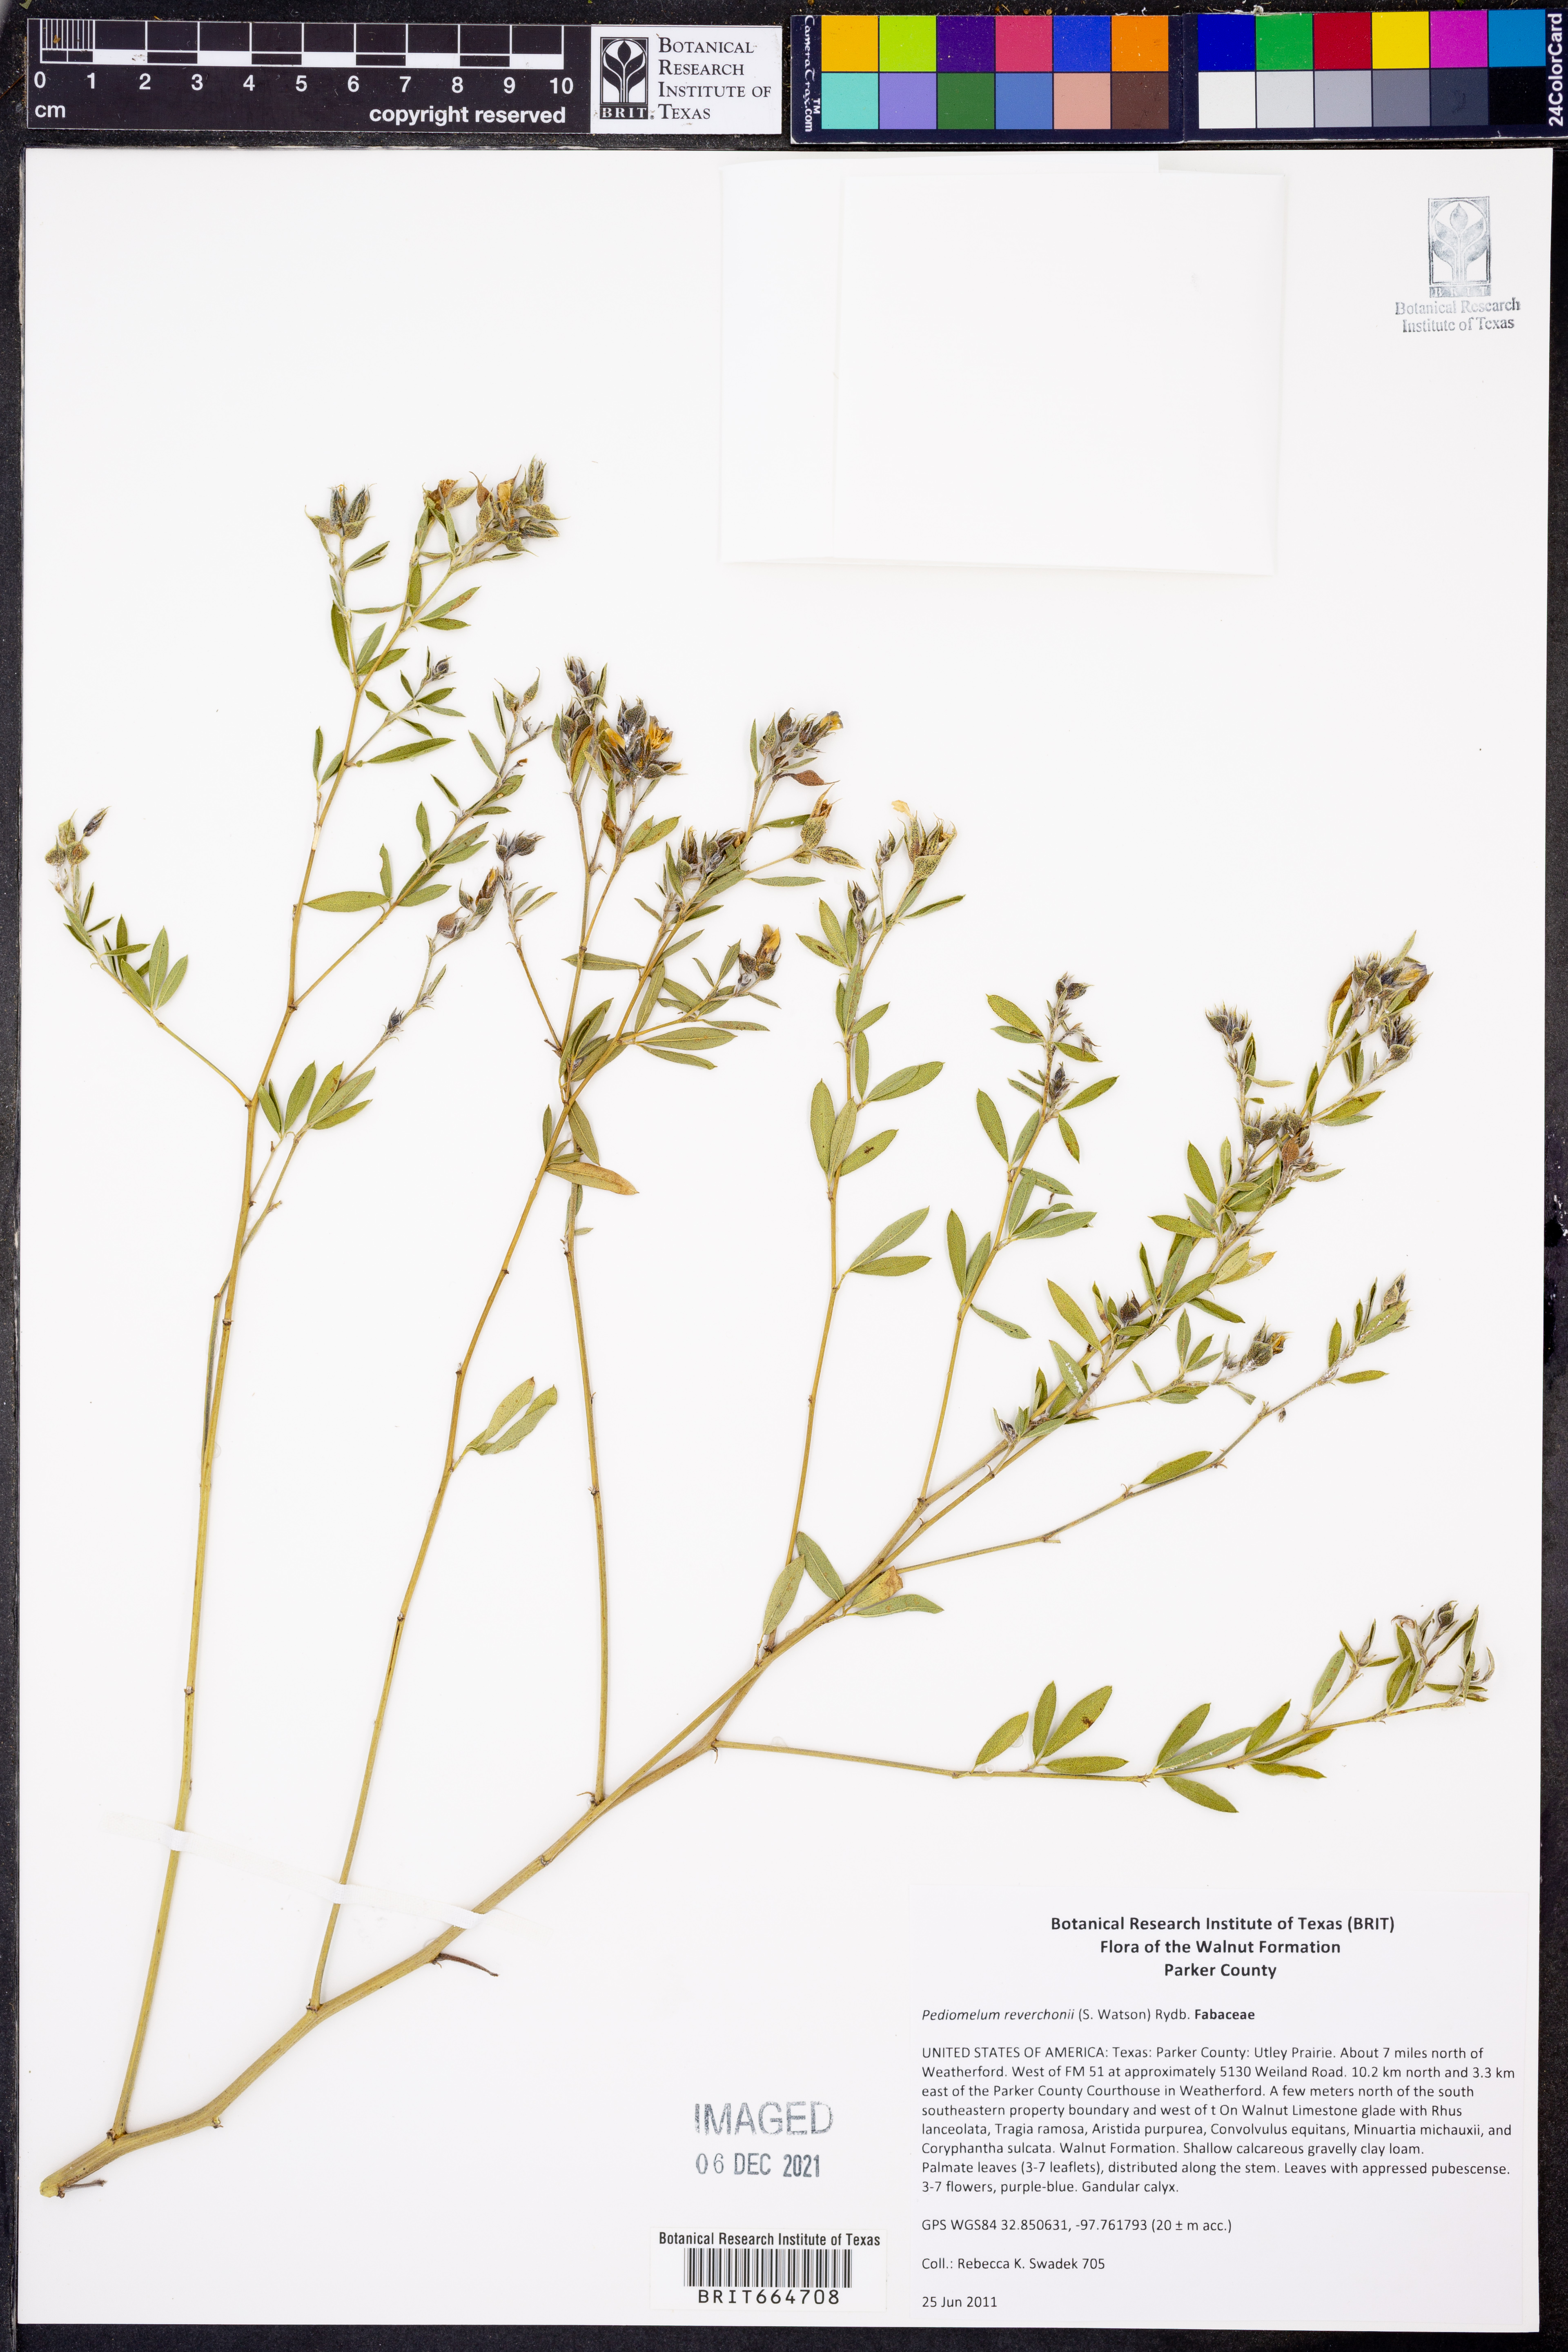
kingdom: Plantae
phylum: Tracheophyta
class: Magnoliopsida
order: Fabales
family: Fabaceae
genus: Pediomelum
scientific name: Pediomelum reverchonii
